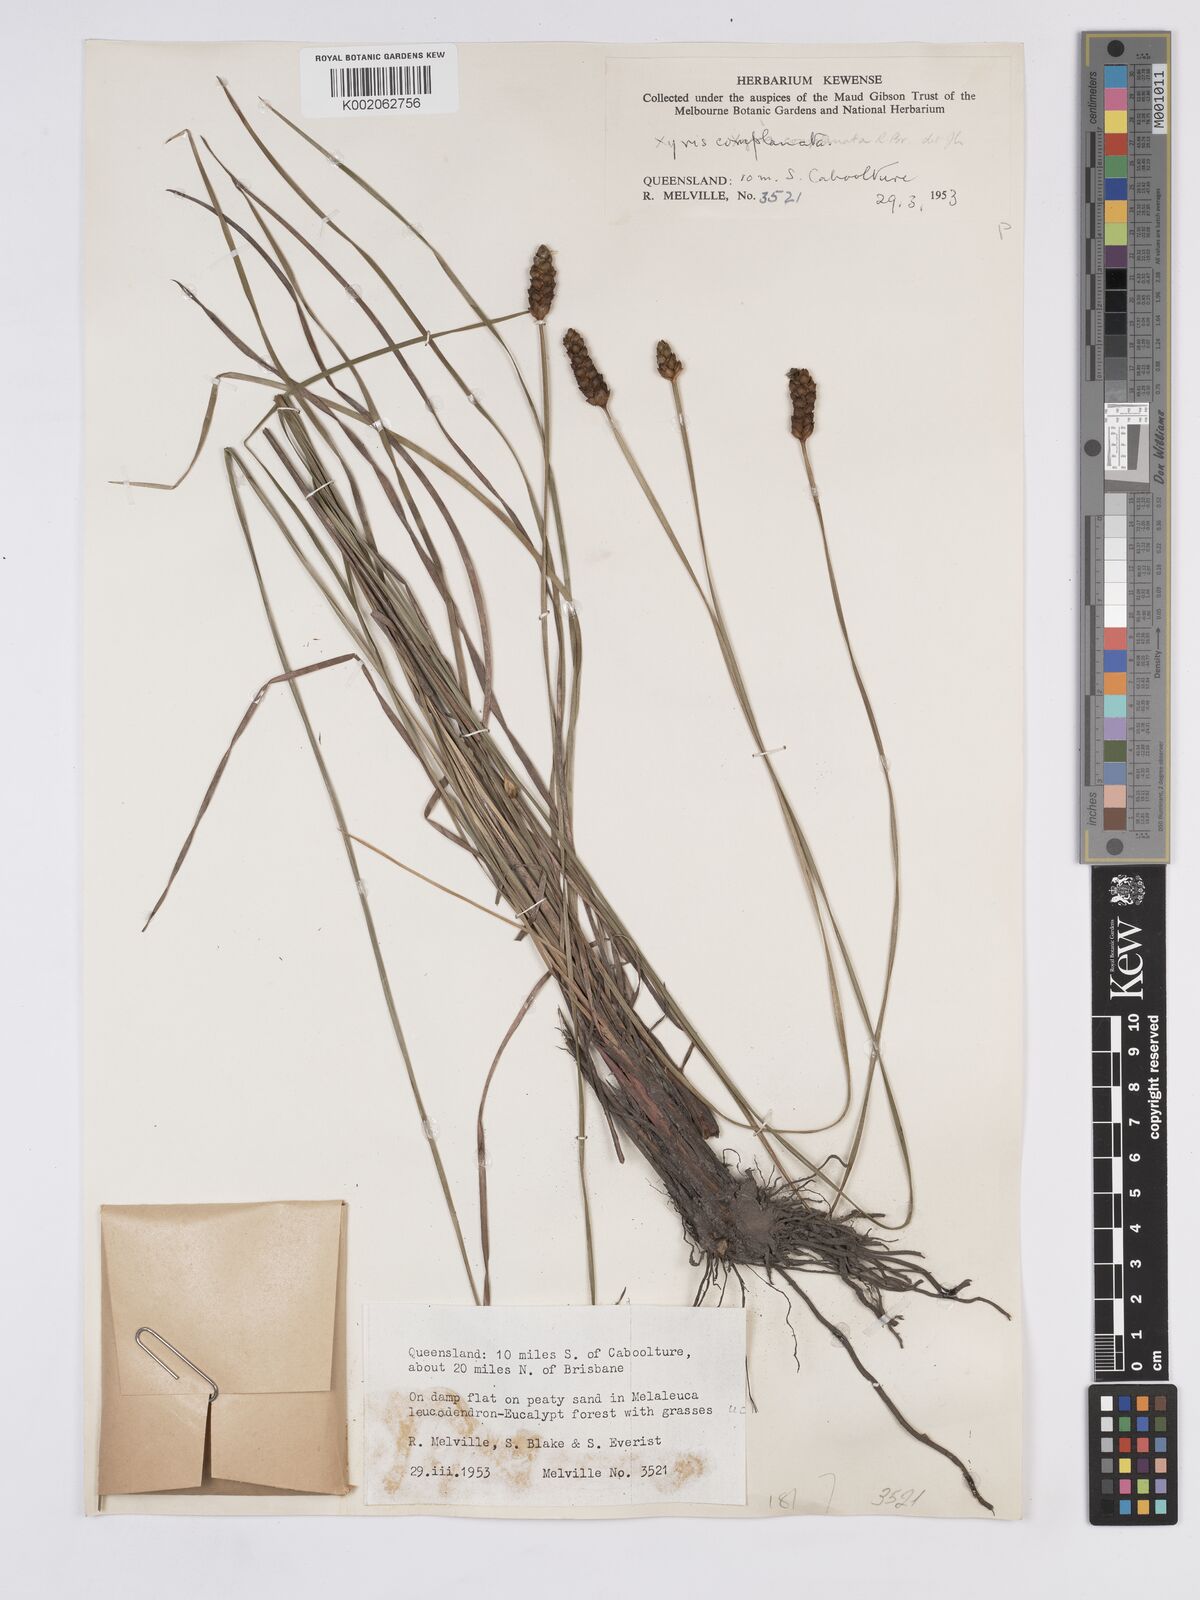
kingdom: Plantae
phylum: Tracheophyta
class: Liliopsida
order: Poales
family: Xyridaceae
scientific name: Xyridaceae
